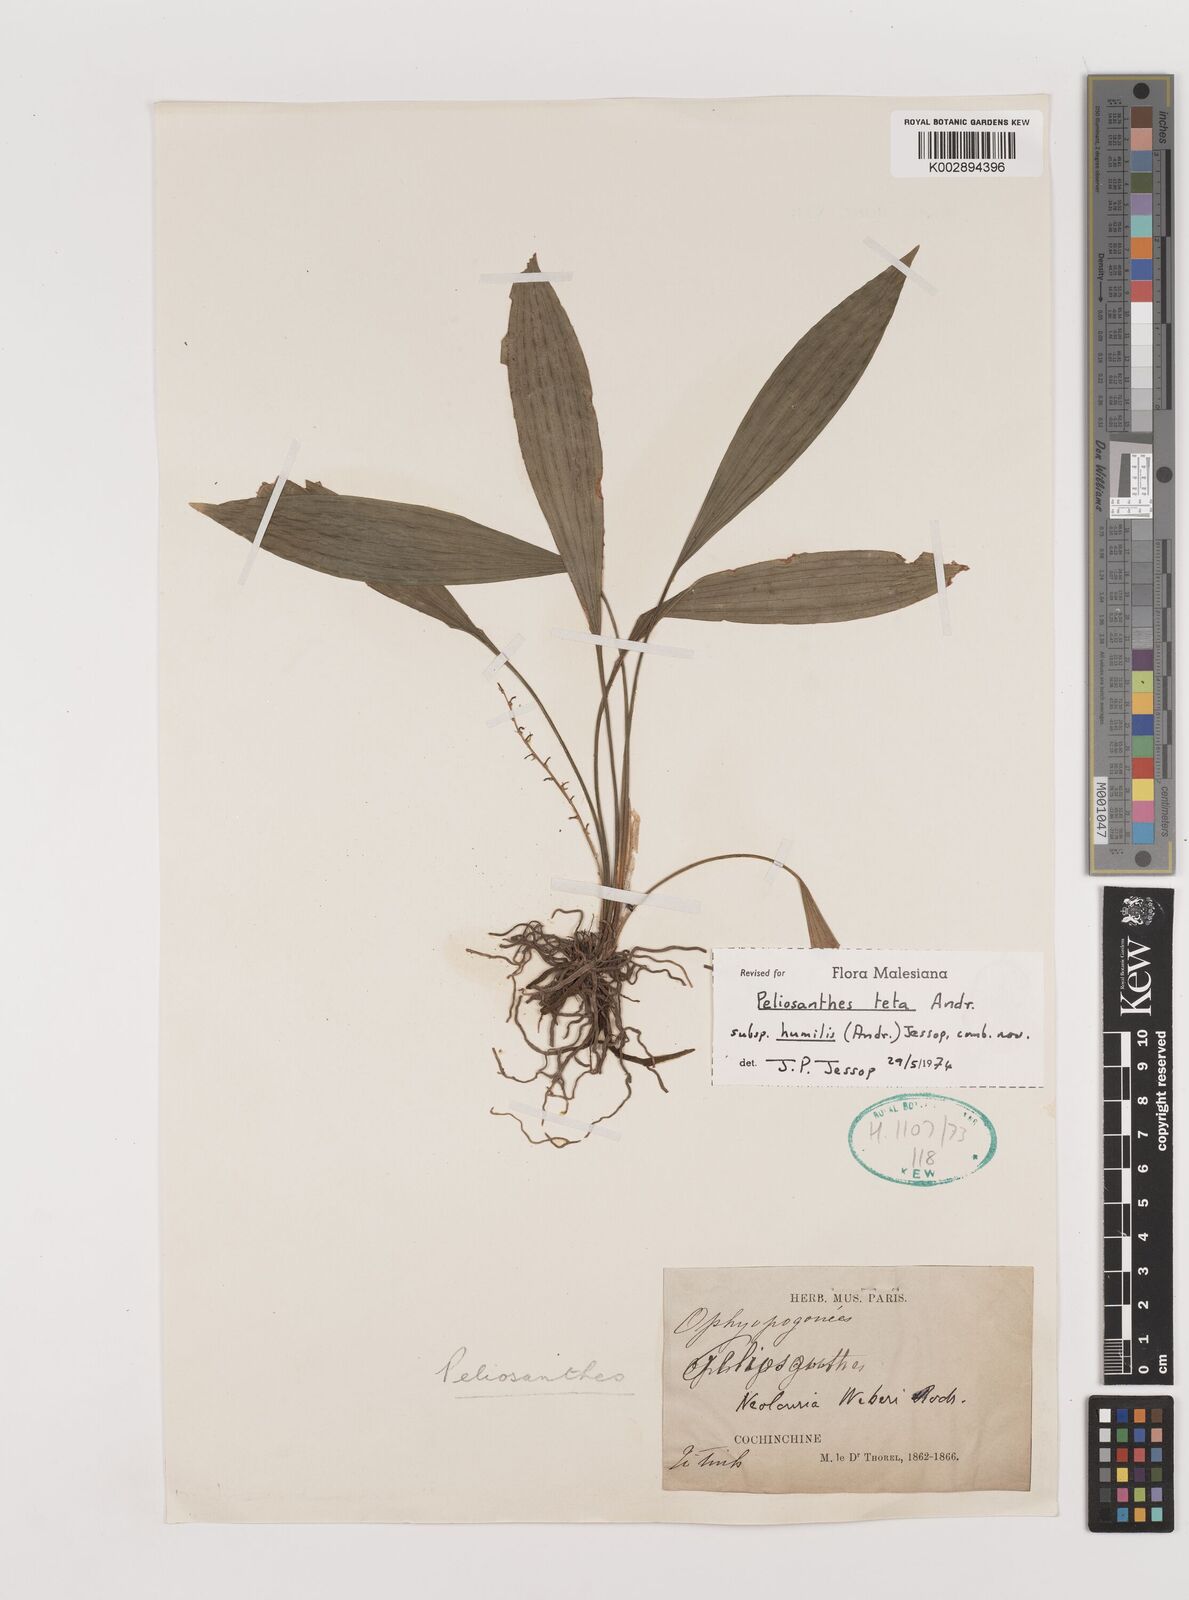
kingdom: Plantae
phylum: Tracheophyta
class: Liliopsida
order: Asparagales
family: Asparagaceae
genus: Peliosanthes
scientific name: Peliosanthes teta
